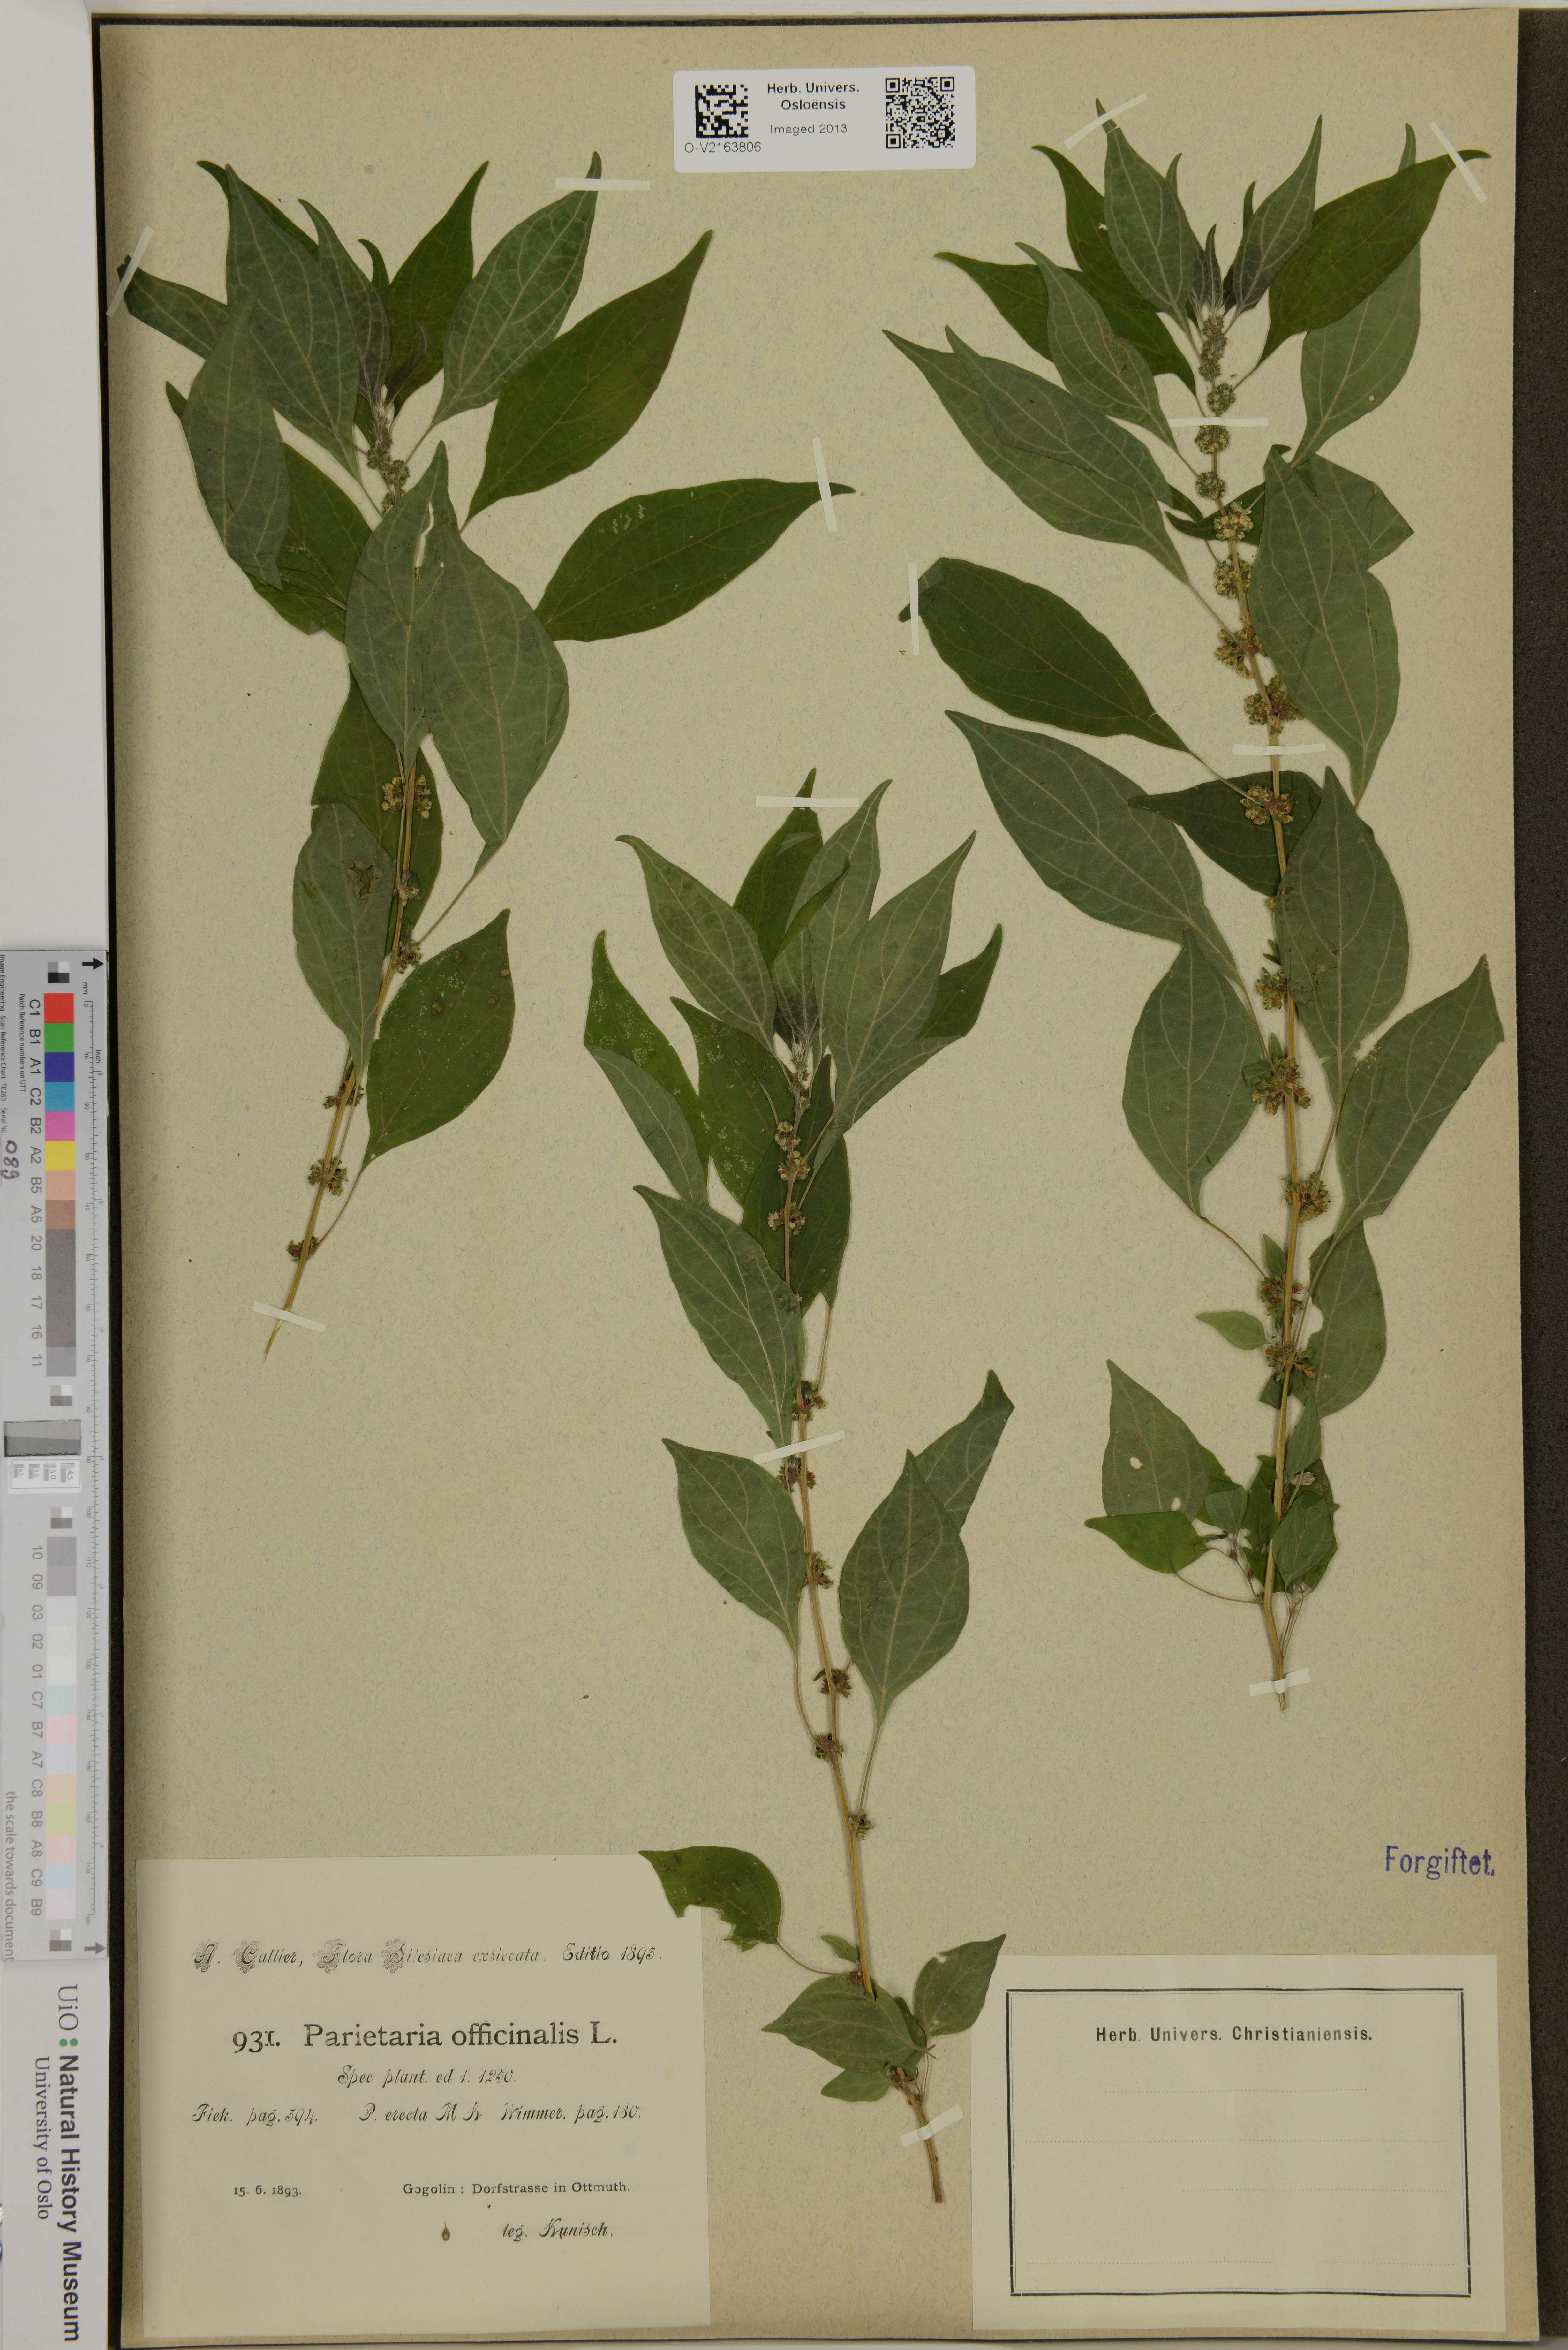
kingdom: Plantae
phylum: Tracheophyta
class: Magnoliopsida
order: Rosales
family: Urticaceae
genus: Parietaria
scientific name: Parietaria officinalis
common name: Eastern pellitory-of-the-wall
